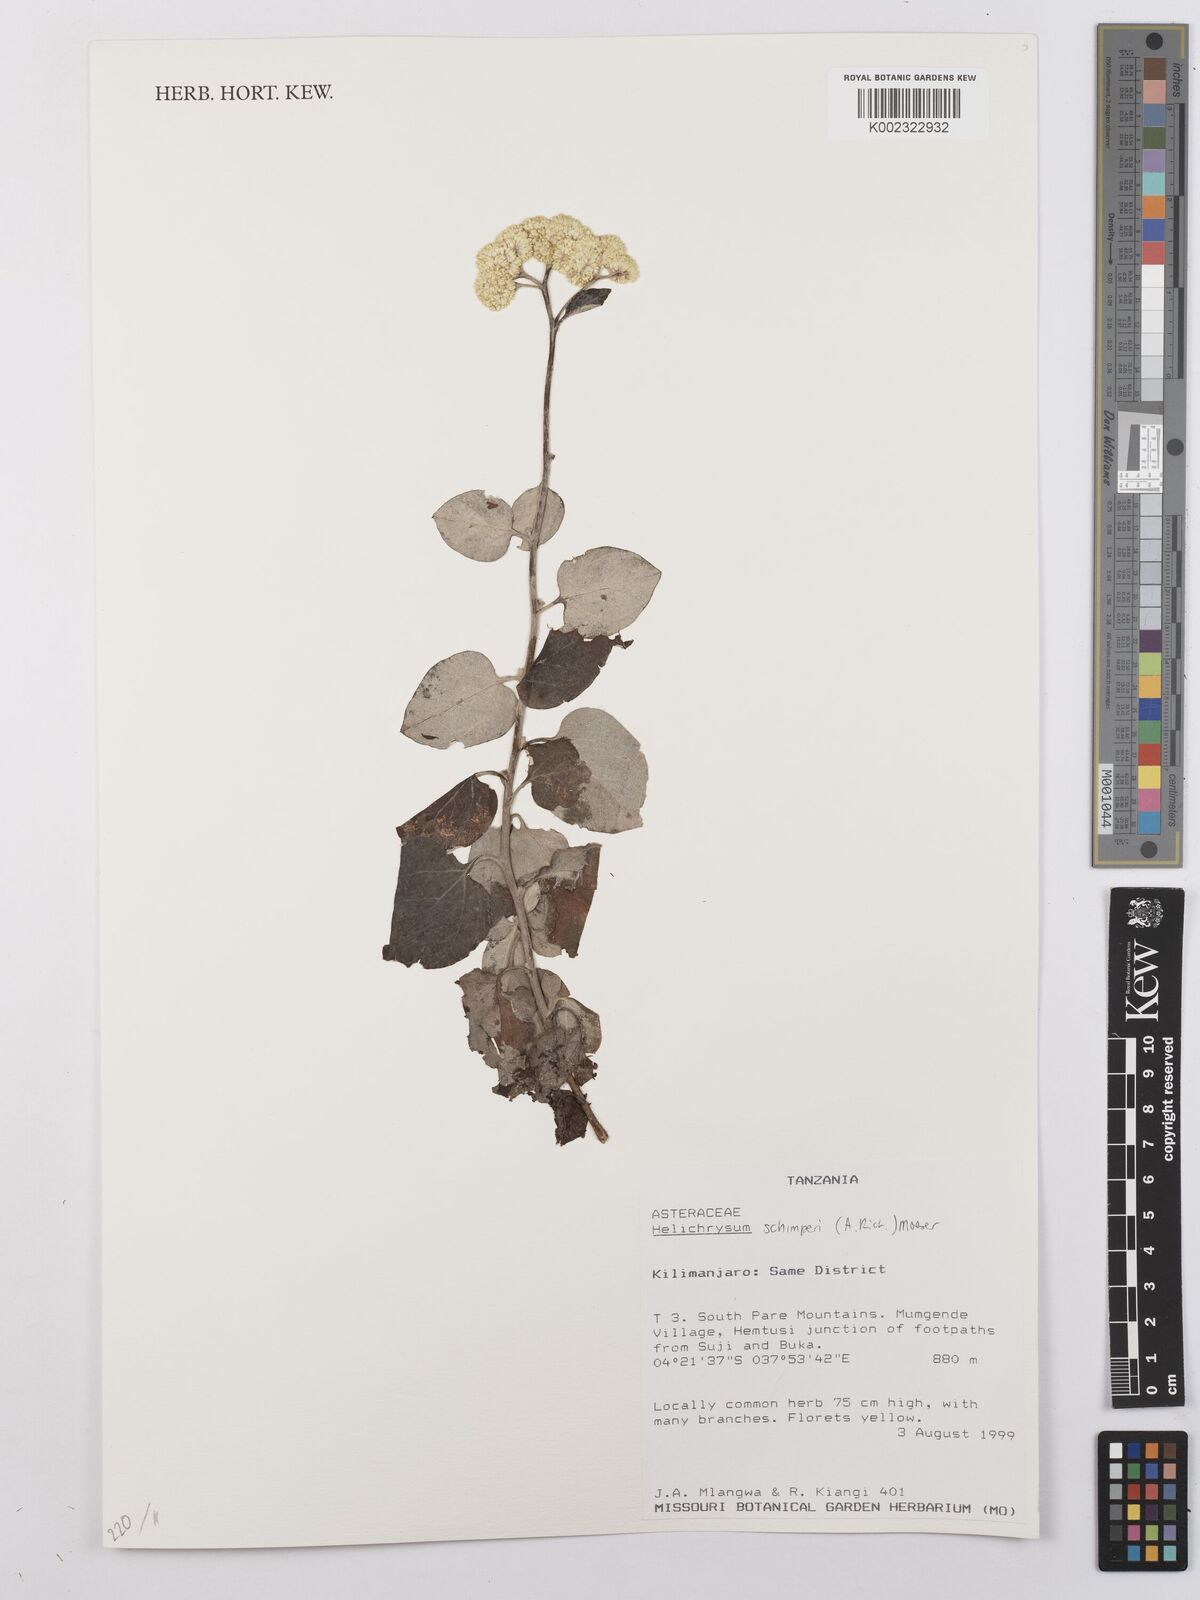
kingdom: Plantae
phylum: Tracheophyta
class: Magnoliopsida
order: Asterales
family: Asteraceae
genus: Helichrysum
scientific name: Helichrysum schimperi
